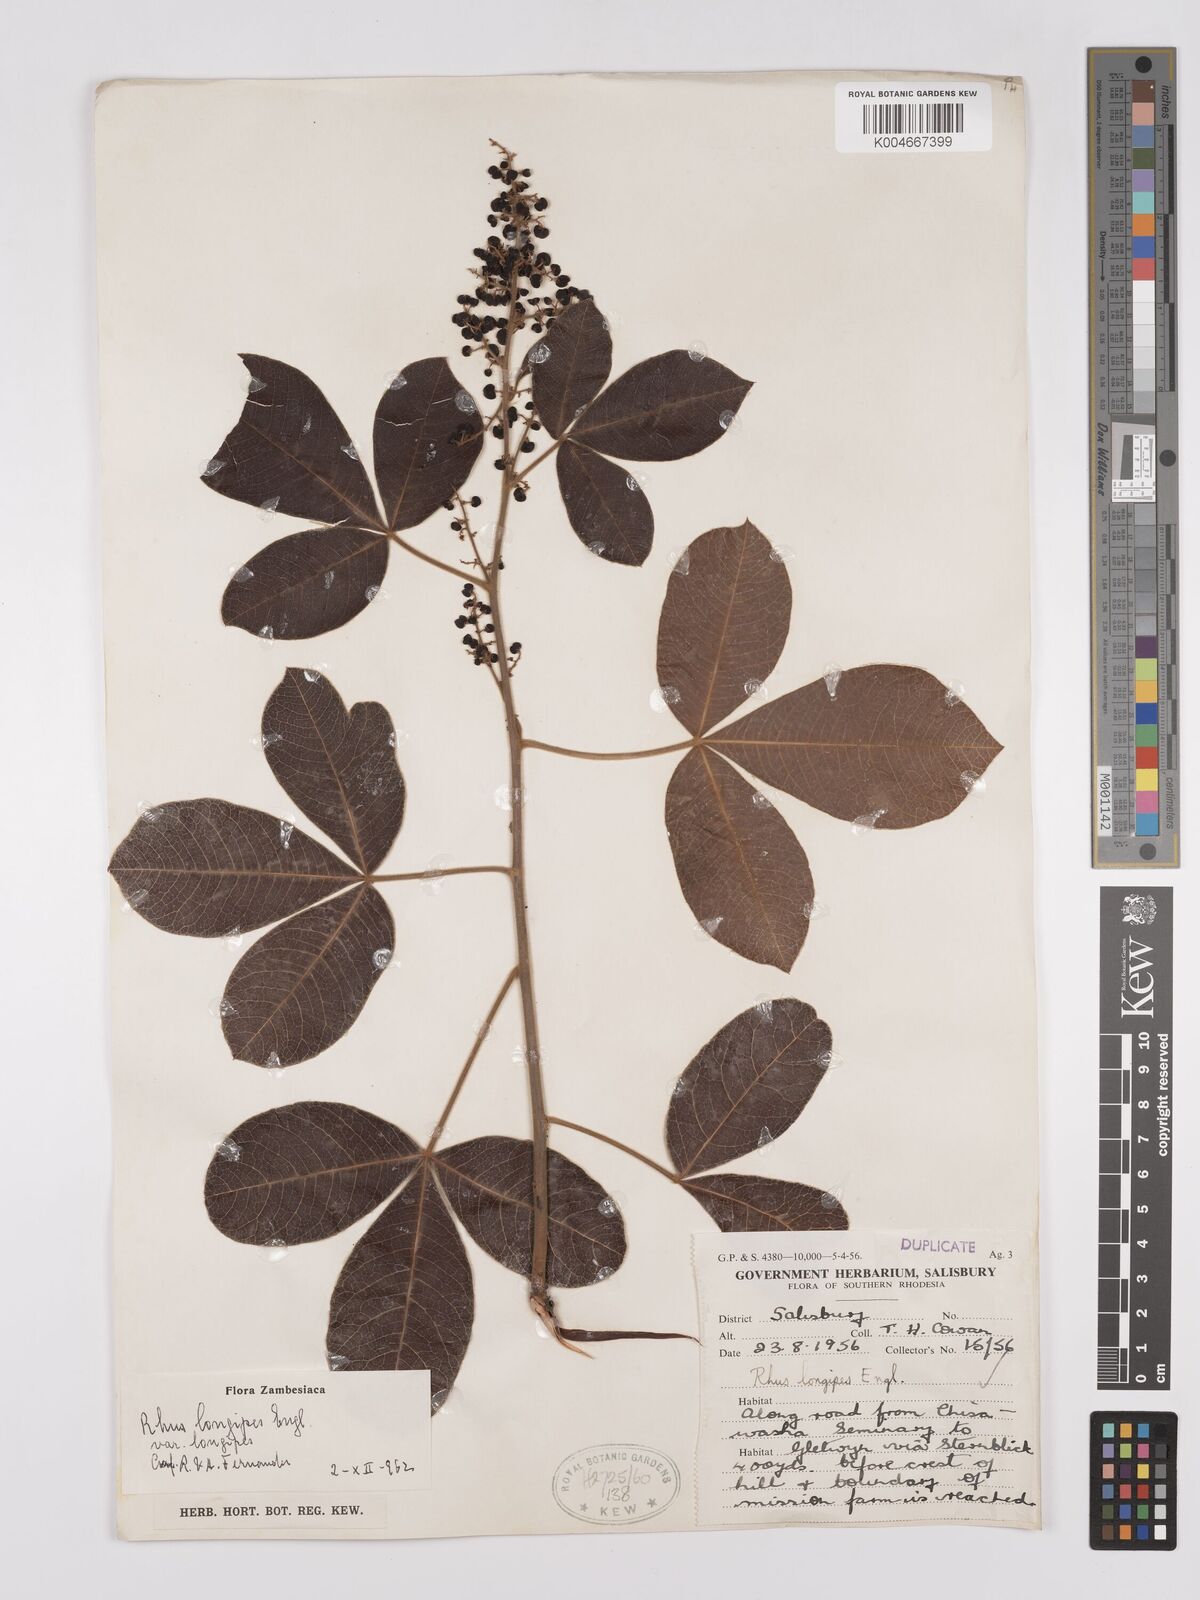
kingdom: Plantae
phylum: Tracheophyta
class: Magnoliopsida
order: Sapindales
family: Anacardiaceae
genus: Searsia
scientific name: Searsia longipes
